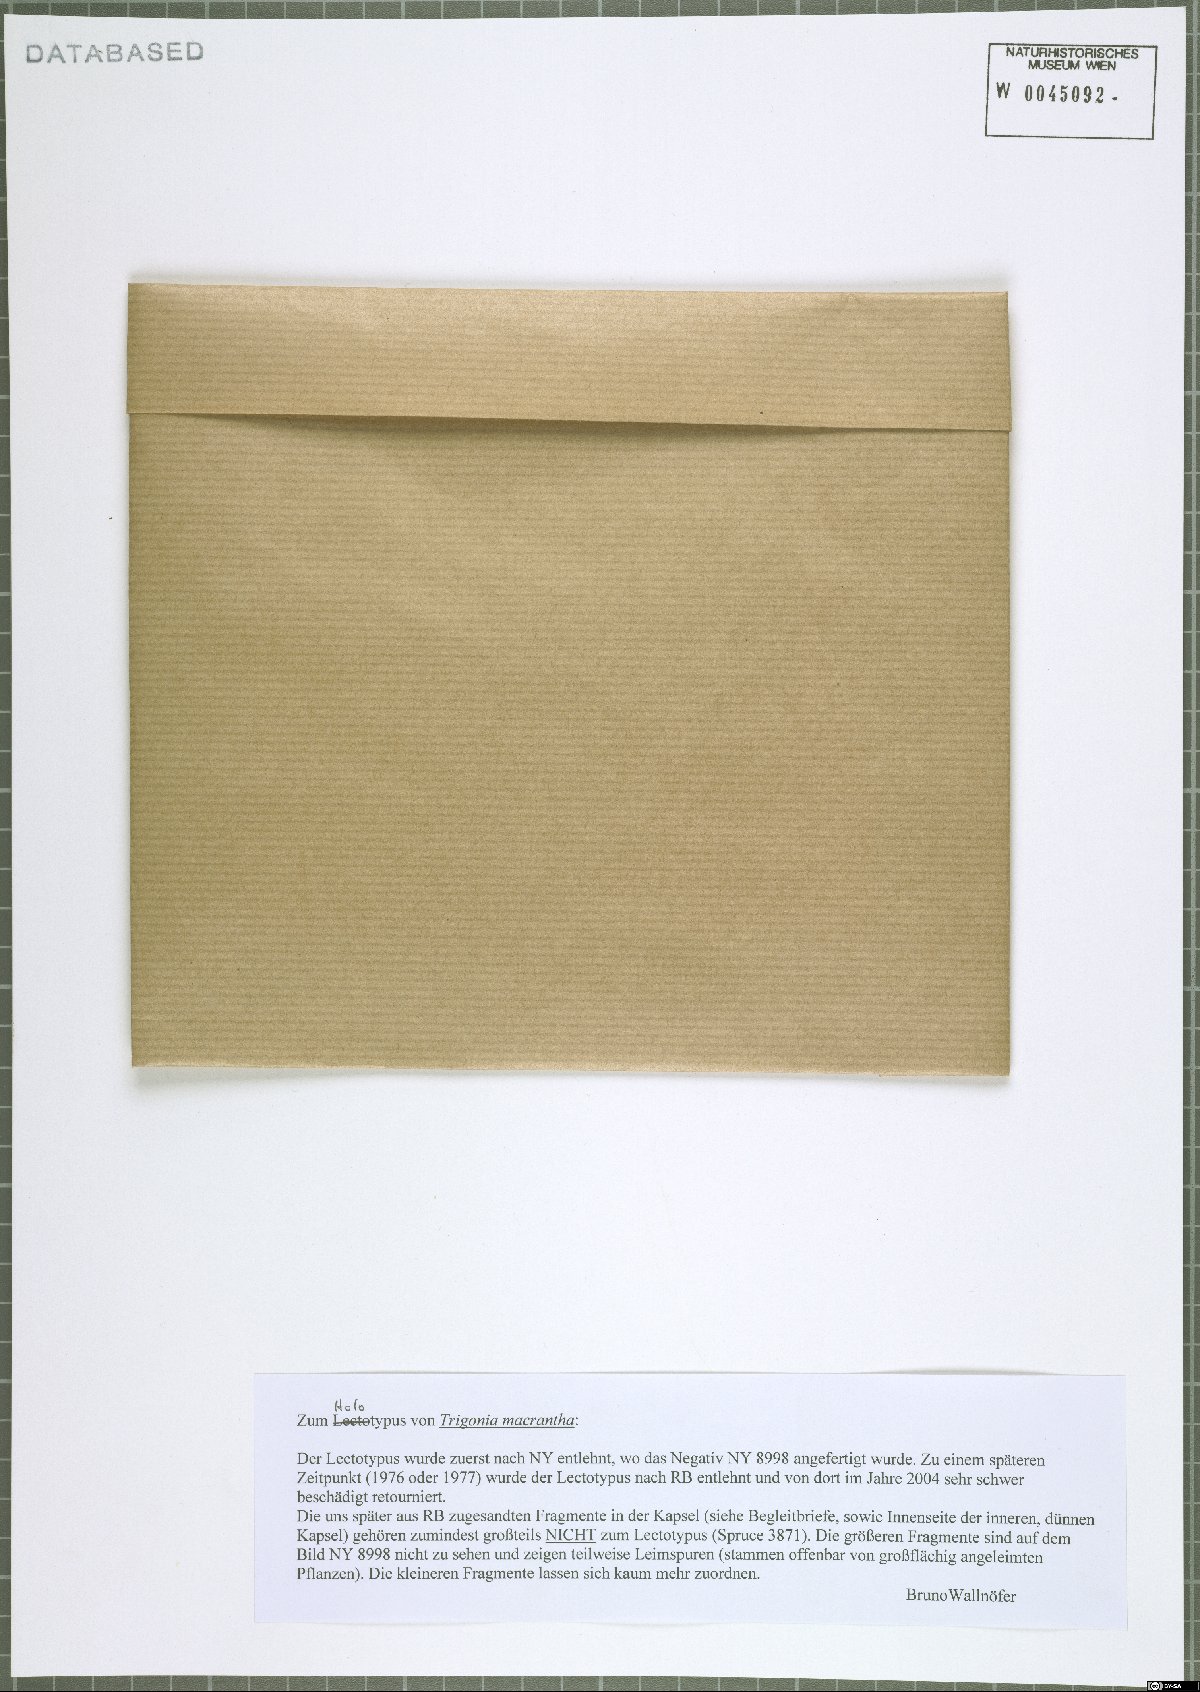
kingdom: Plantae
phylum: Tracheophyta
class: Magnoliopsida
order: Malpighiales
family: Trigoniaceae
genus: Trigonia
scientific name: Trigonia macrantha
